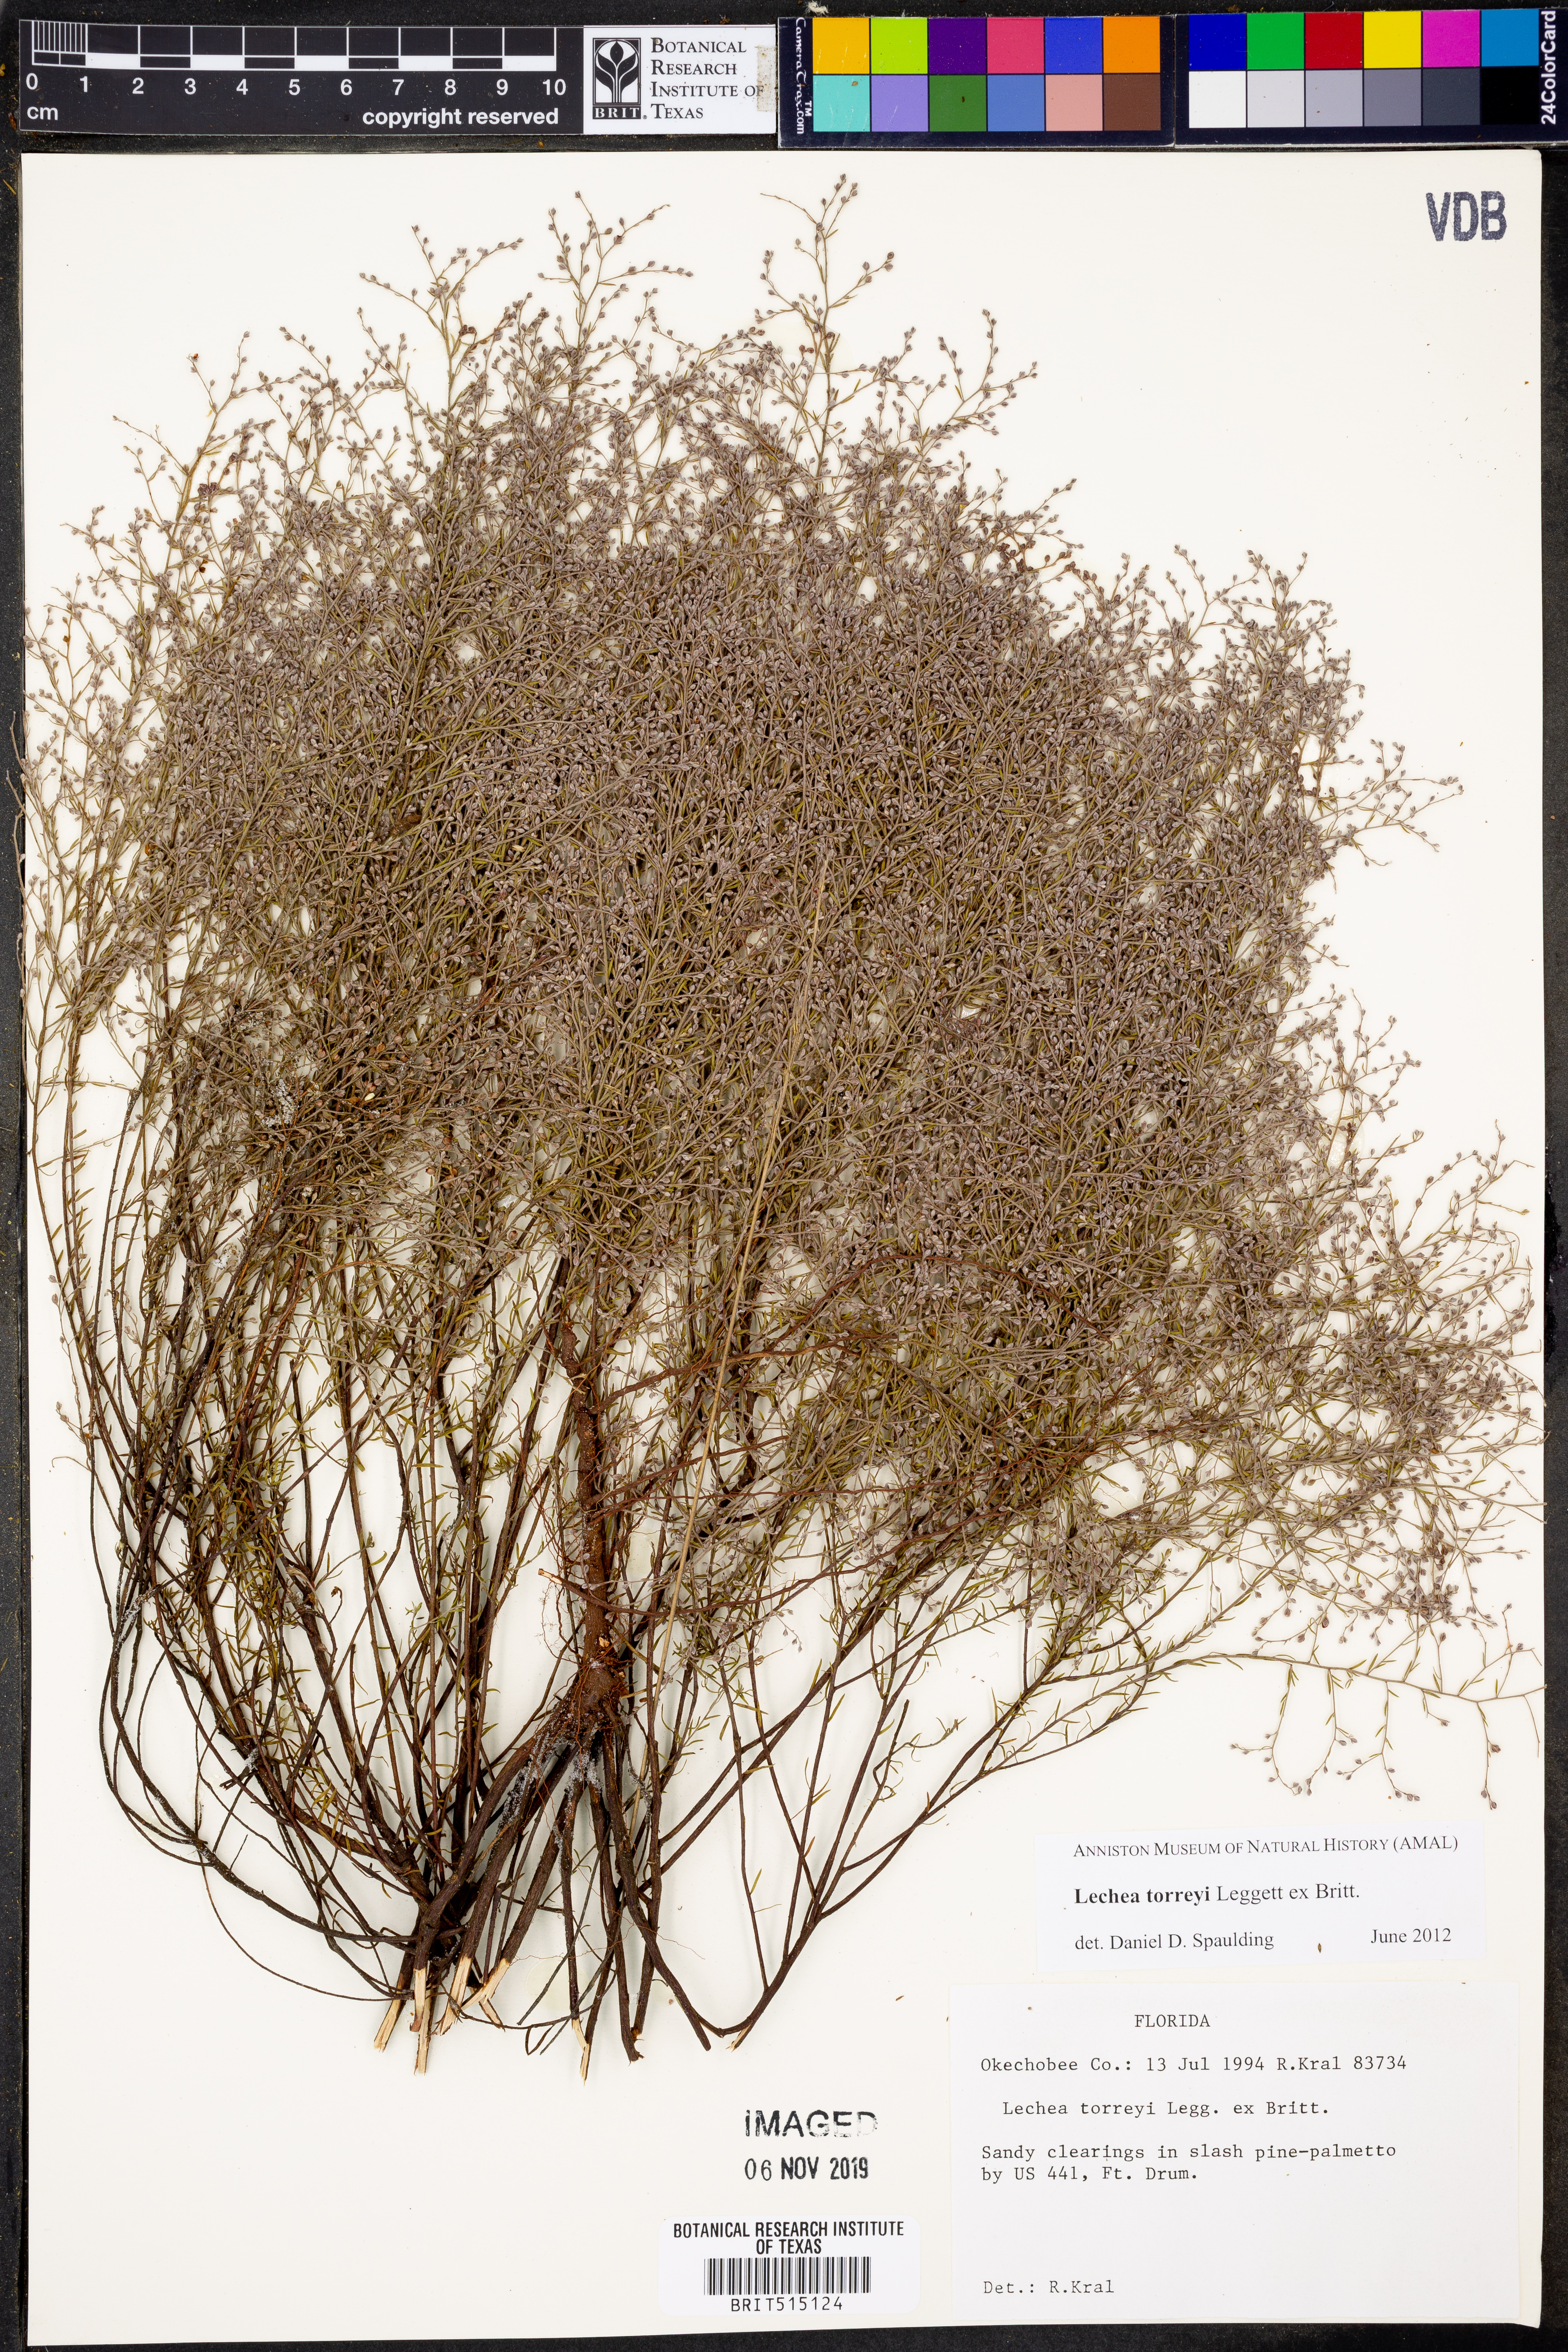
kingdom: Plantae
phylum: Tracheophyta
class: Magnoliopsida
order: Malvales
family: Cistaceae
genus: Lechea
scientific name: Lechea torreyi
